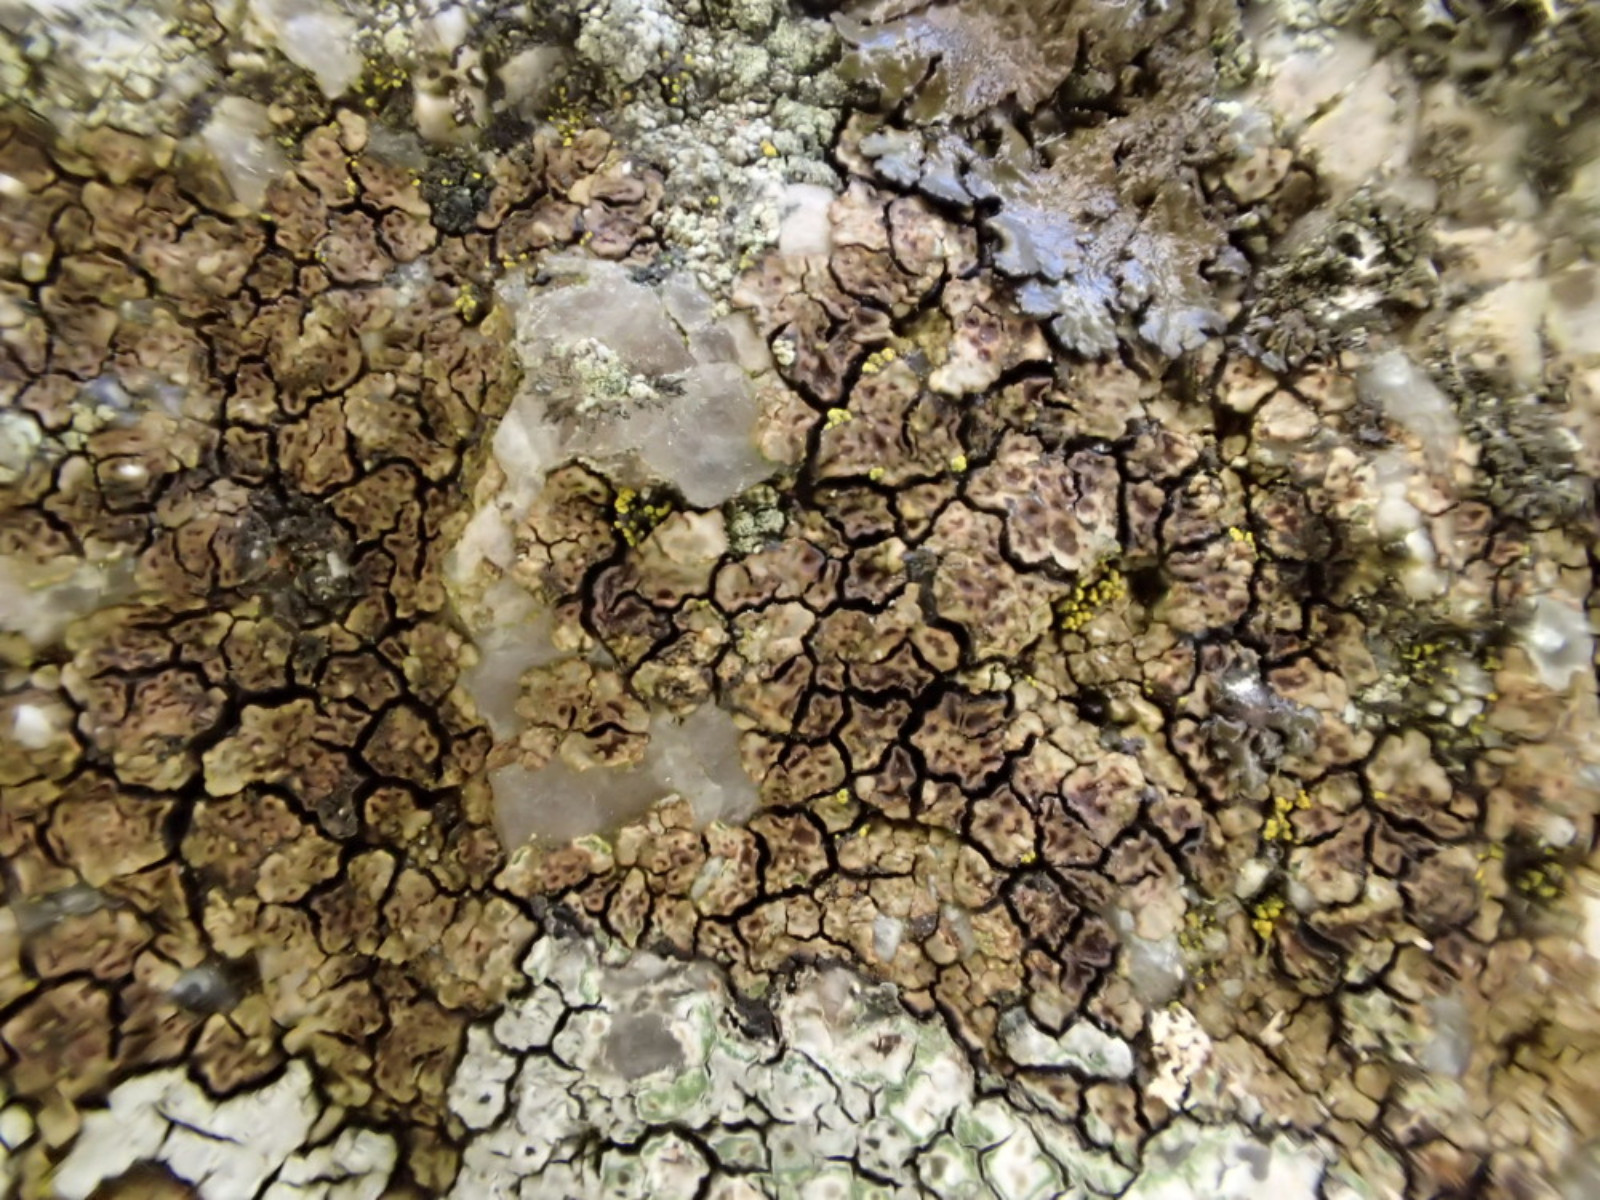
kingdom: Fungi
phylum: Ascomycota
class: Lecanoromycetes
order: Acarosporales
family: Acarosporaceae
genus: Acarospora
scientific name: Acarospora fuscata
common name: brun småsporelav
